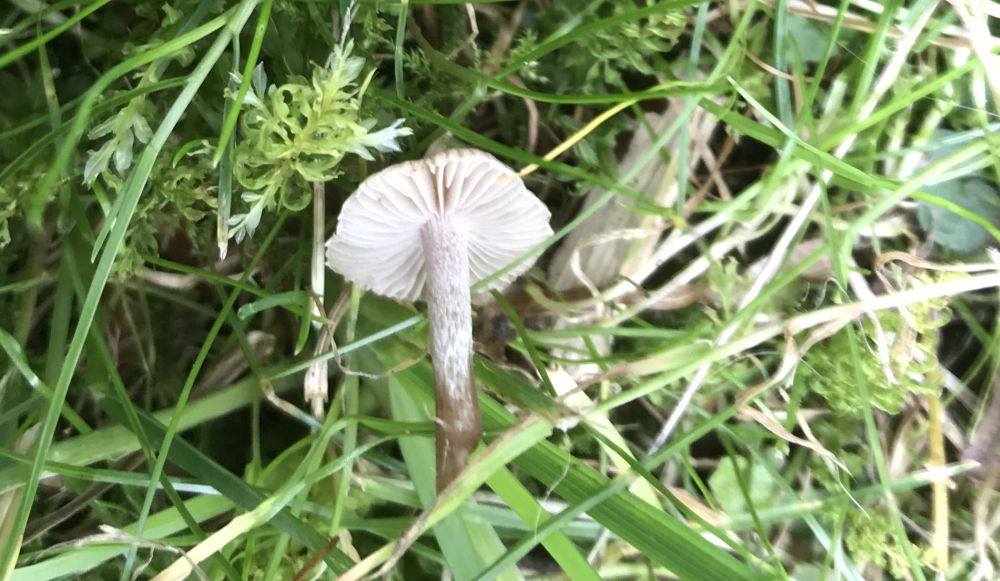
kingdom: Fungi
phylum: Basidiomycota
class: Agaricomycetes
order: Agaricales
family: Inocybaceae
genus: Inocybe
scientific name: Inocybe
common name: trævlhat
